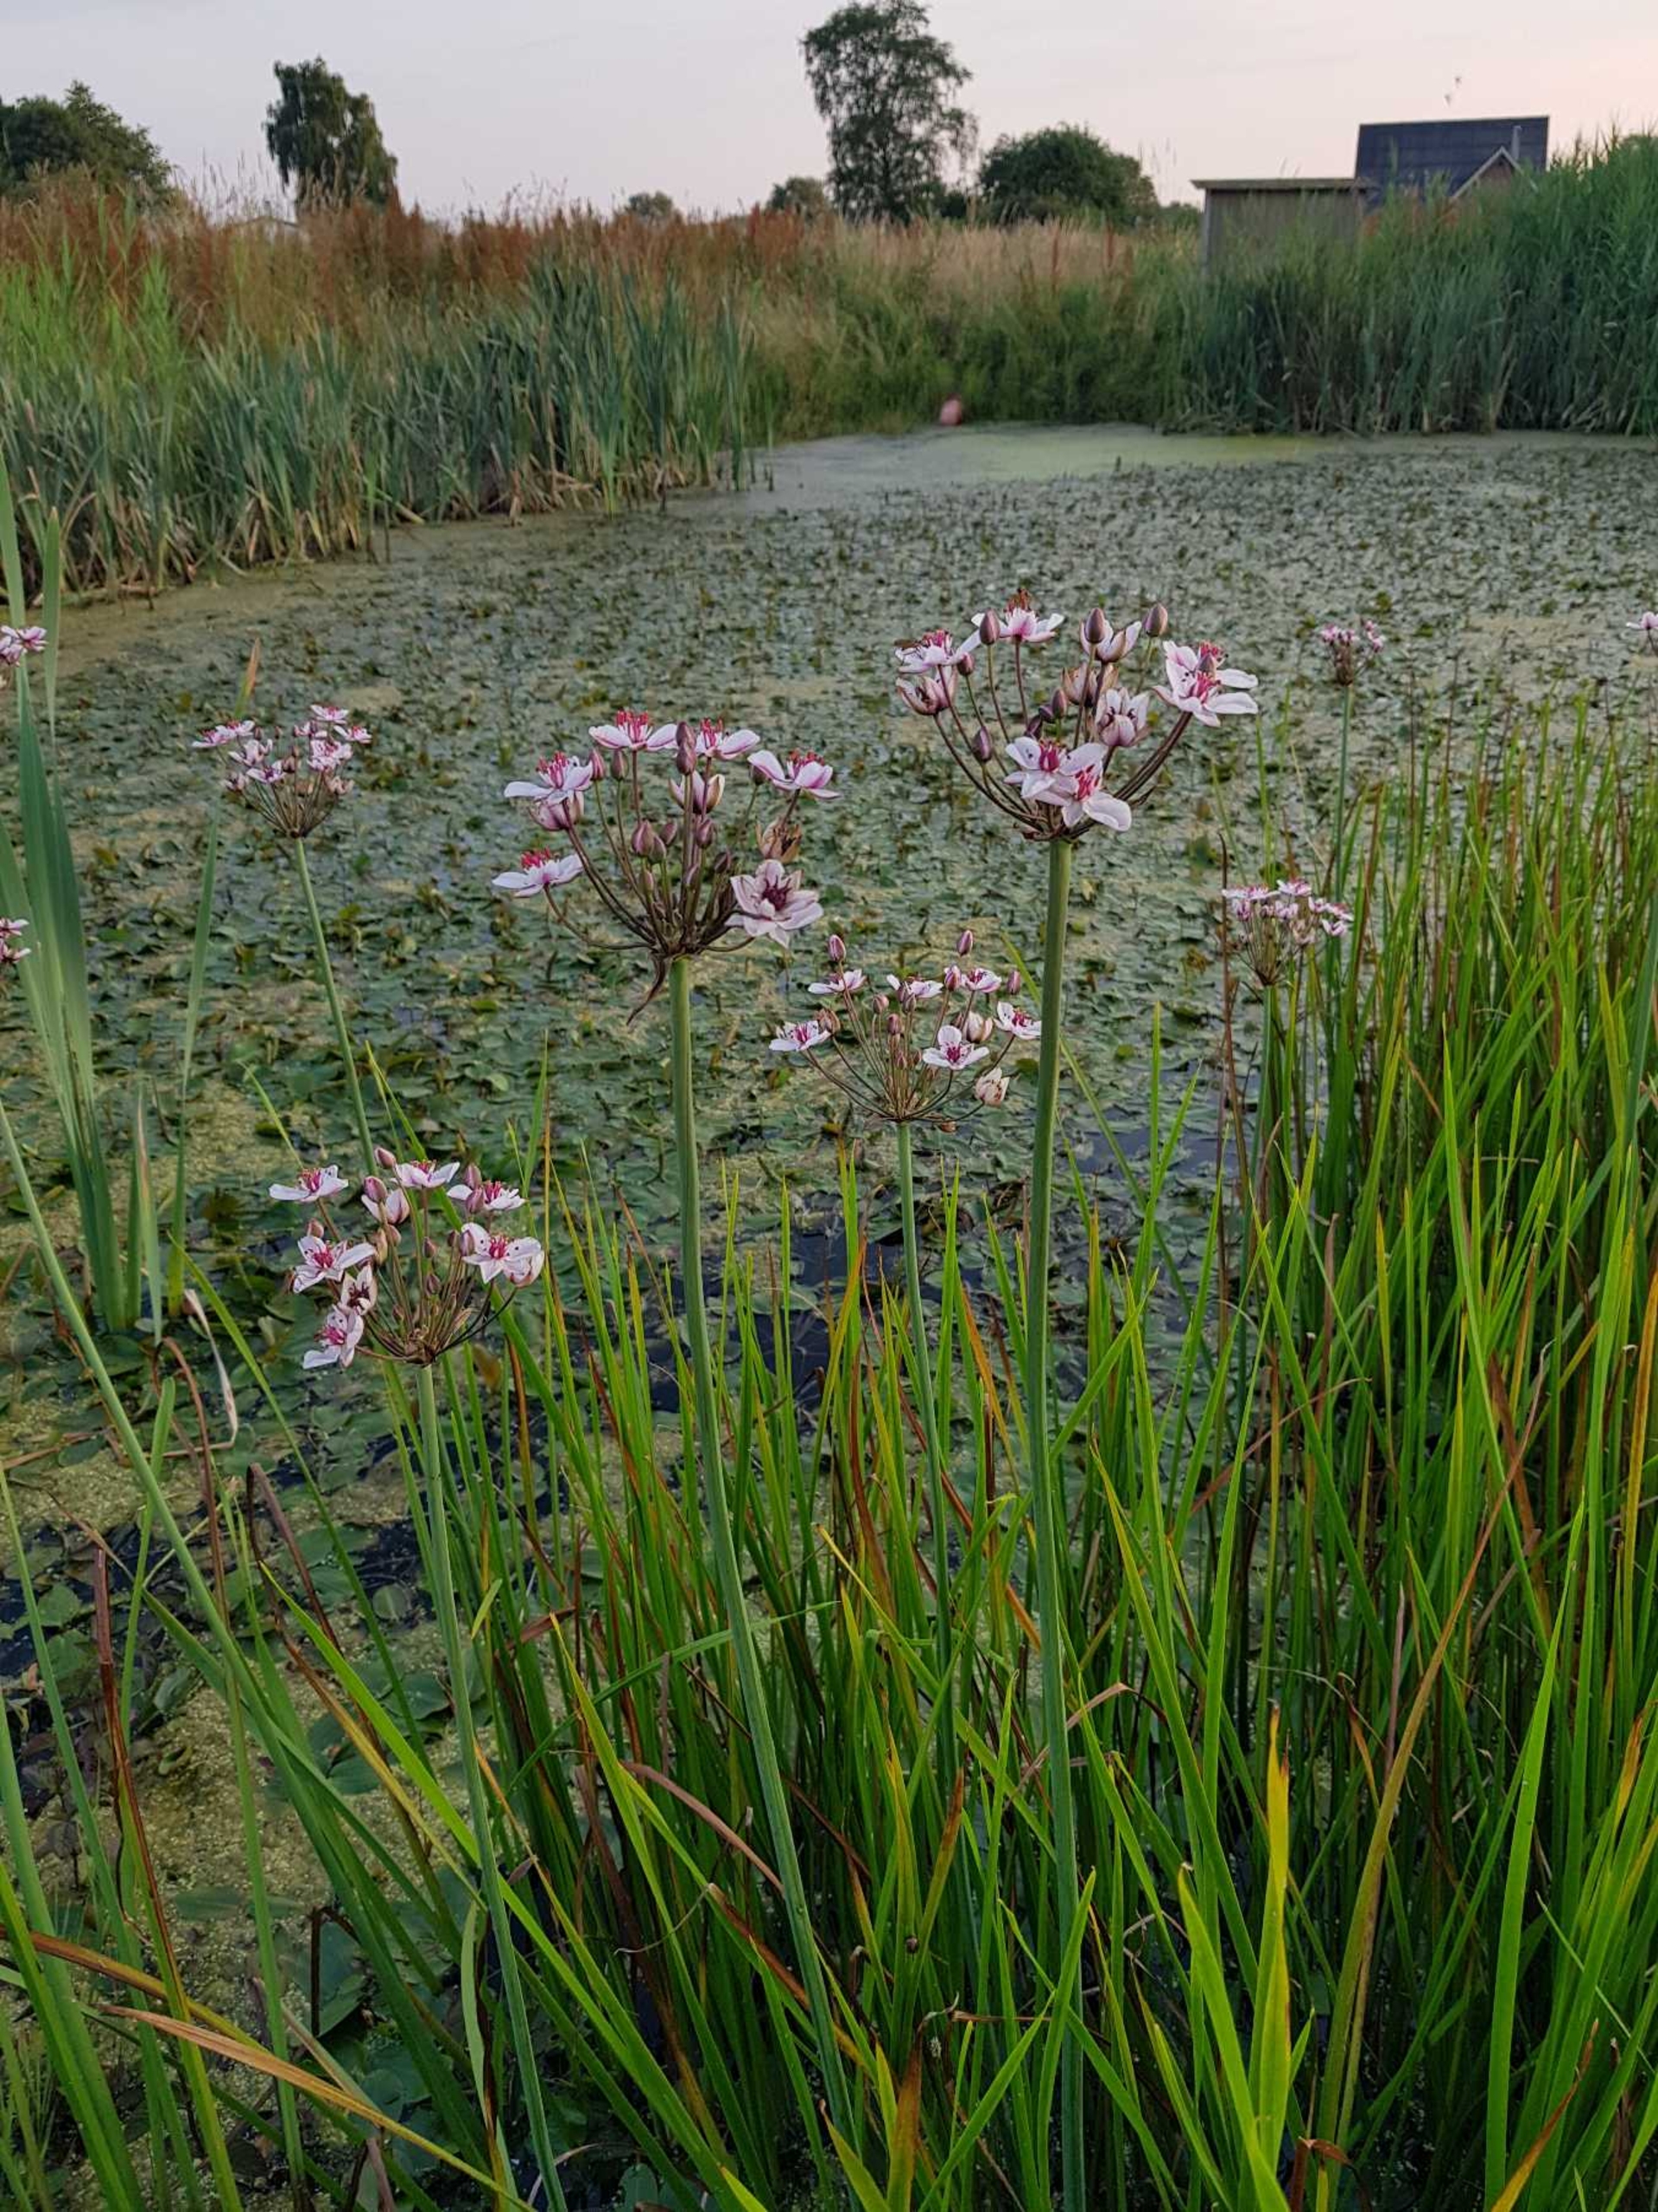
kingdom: Plantae
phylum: Tracheophyta
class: Liliopsida
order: Alismatales
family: Butomaceae
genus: Butomus
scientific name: Butomus umbellatus
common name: Brudelys
